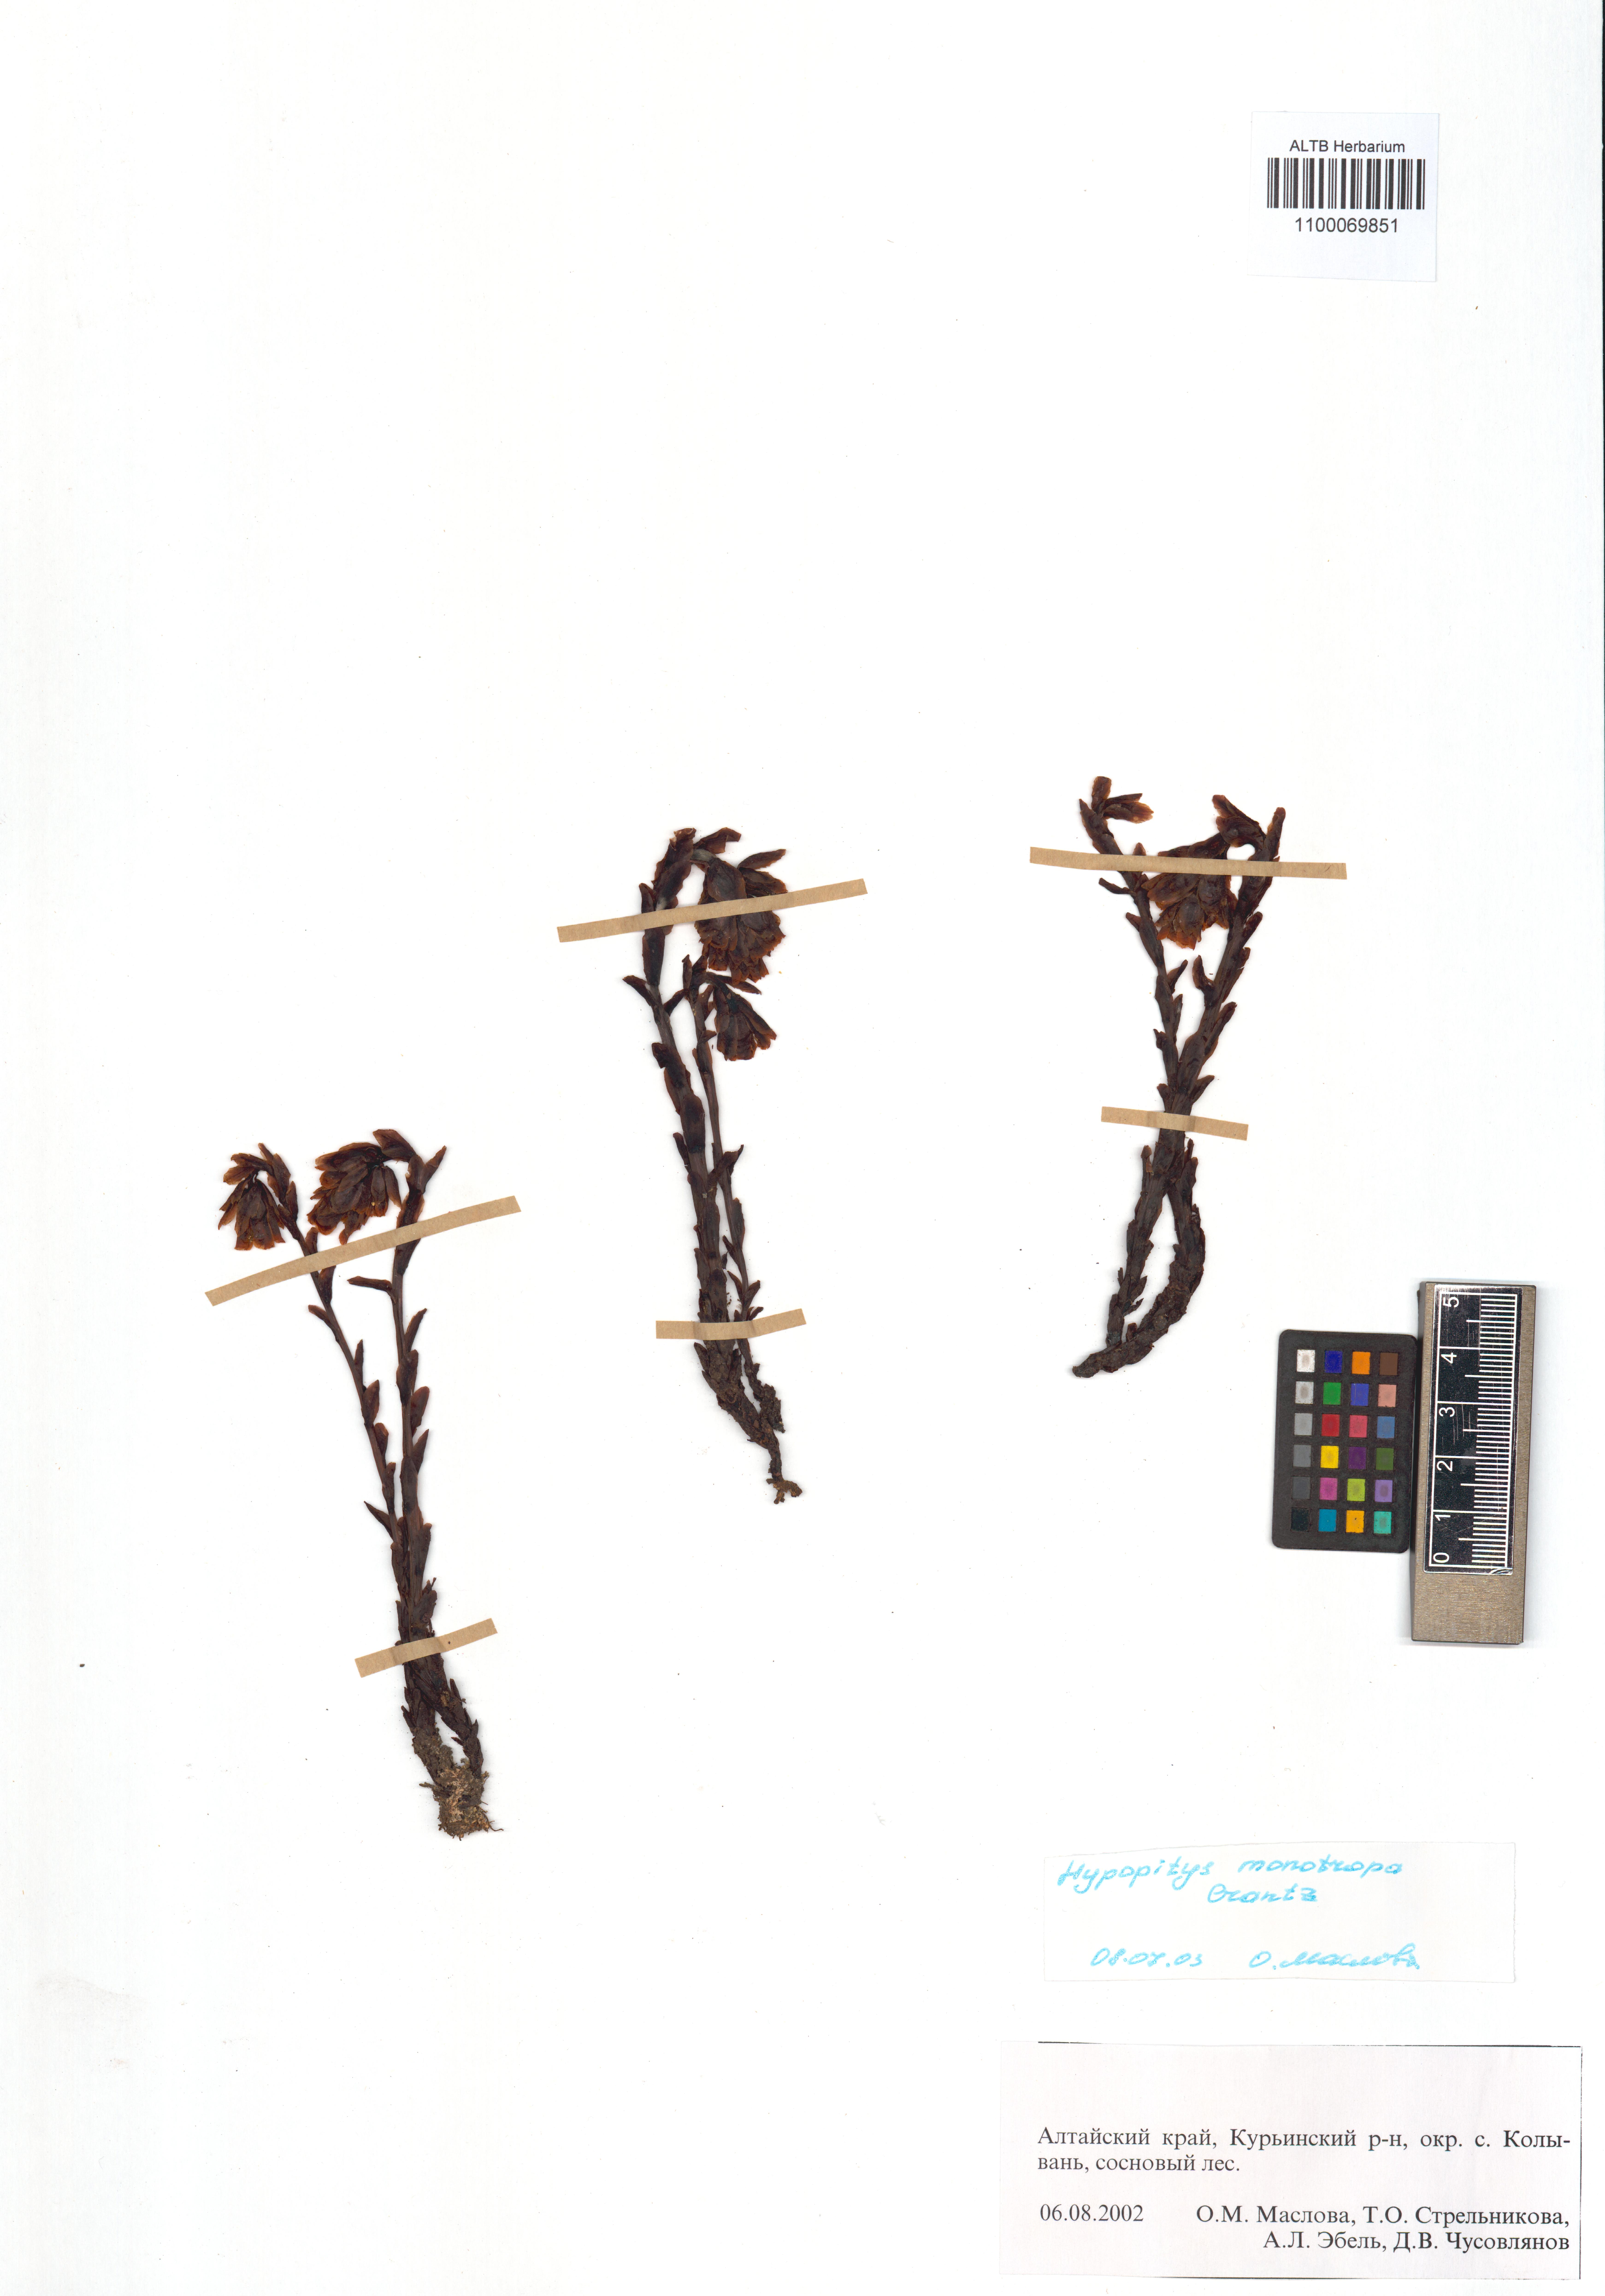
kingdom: Plantae
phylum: Tracheophyta
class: Magnoliopsida
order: Ericales
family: Ericaceae
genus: Hypopitys
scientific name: Hypopitys monotropa
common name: Yellow bird's-nest
